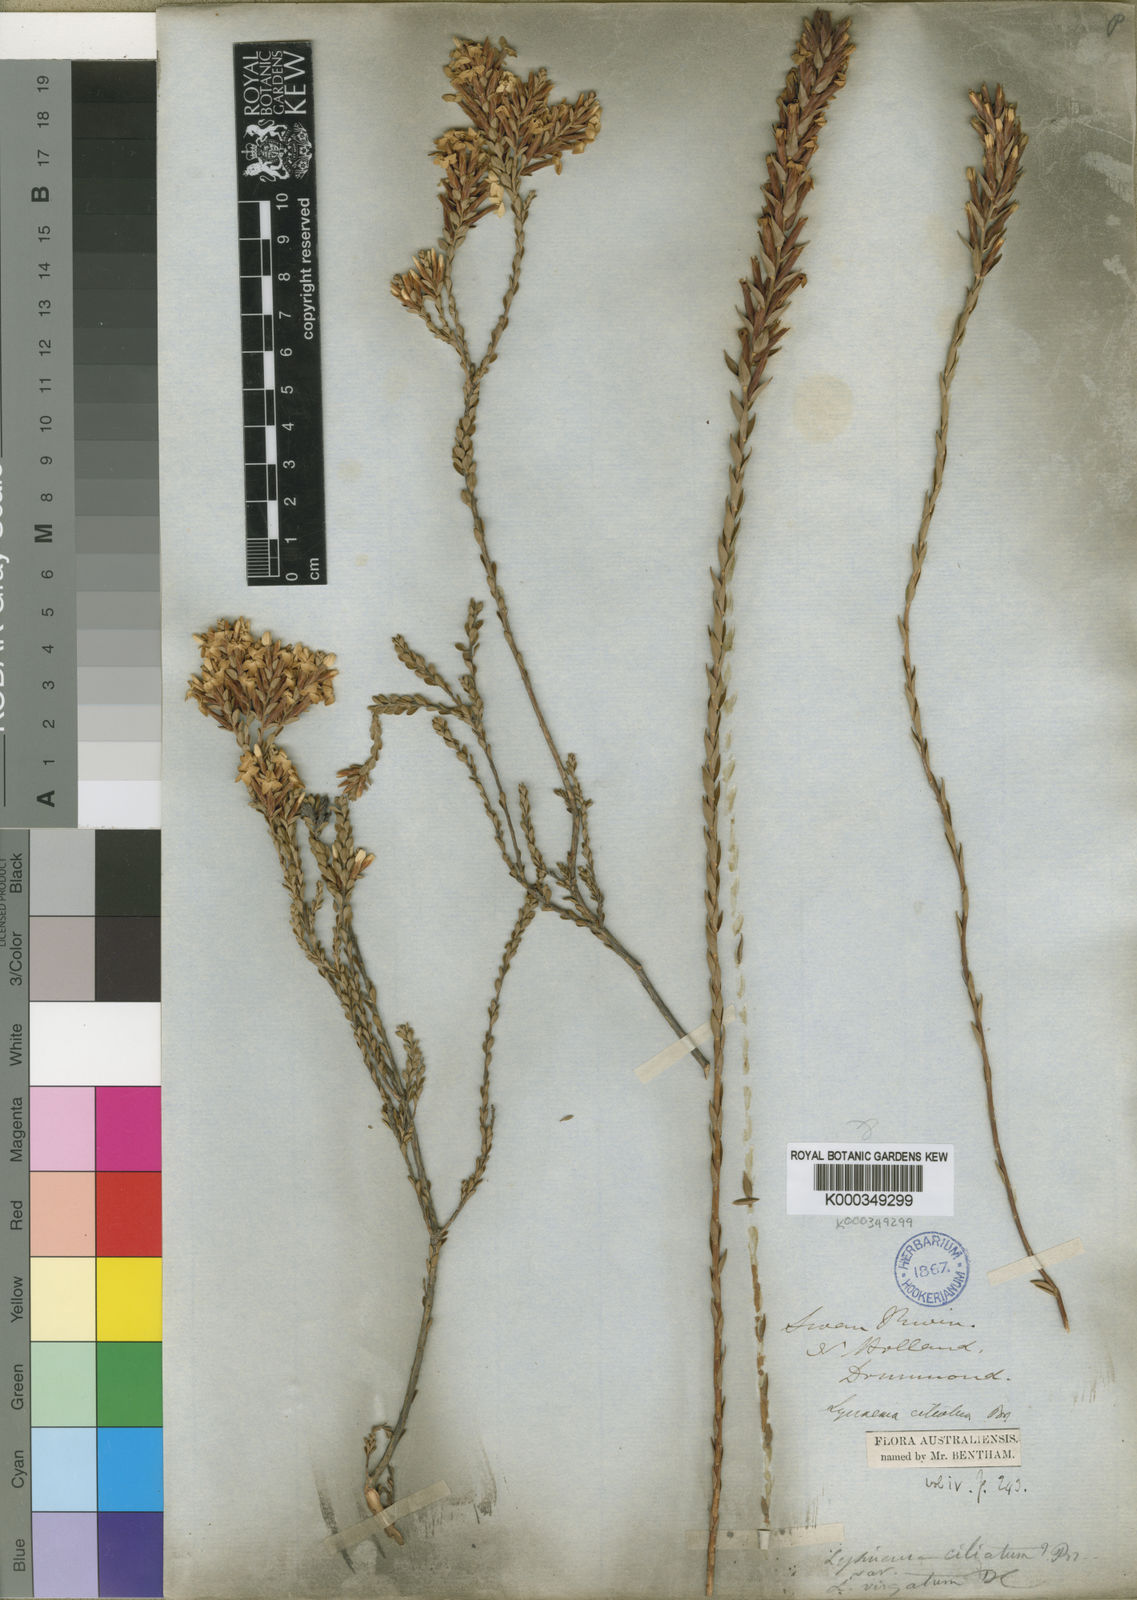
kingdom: Plantae
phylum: Tracheophyta
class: Magnoliopsida
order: Ericales
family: Ericaceae
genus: Lysinema
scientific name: Lysinema ciliatum
